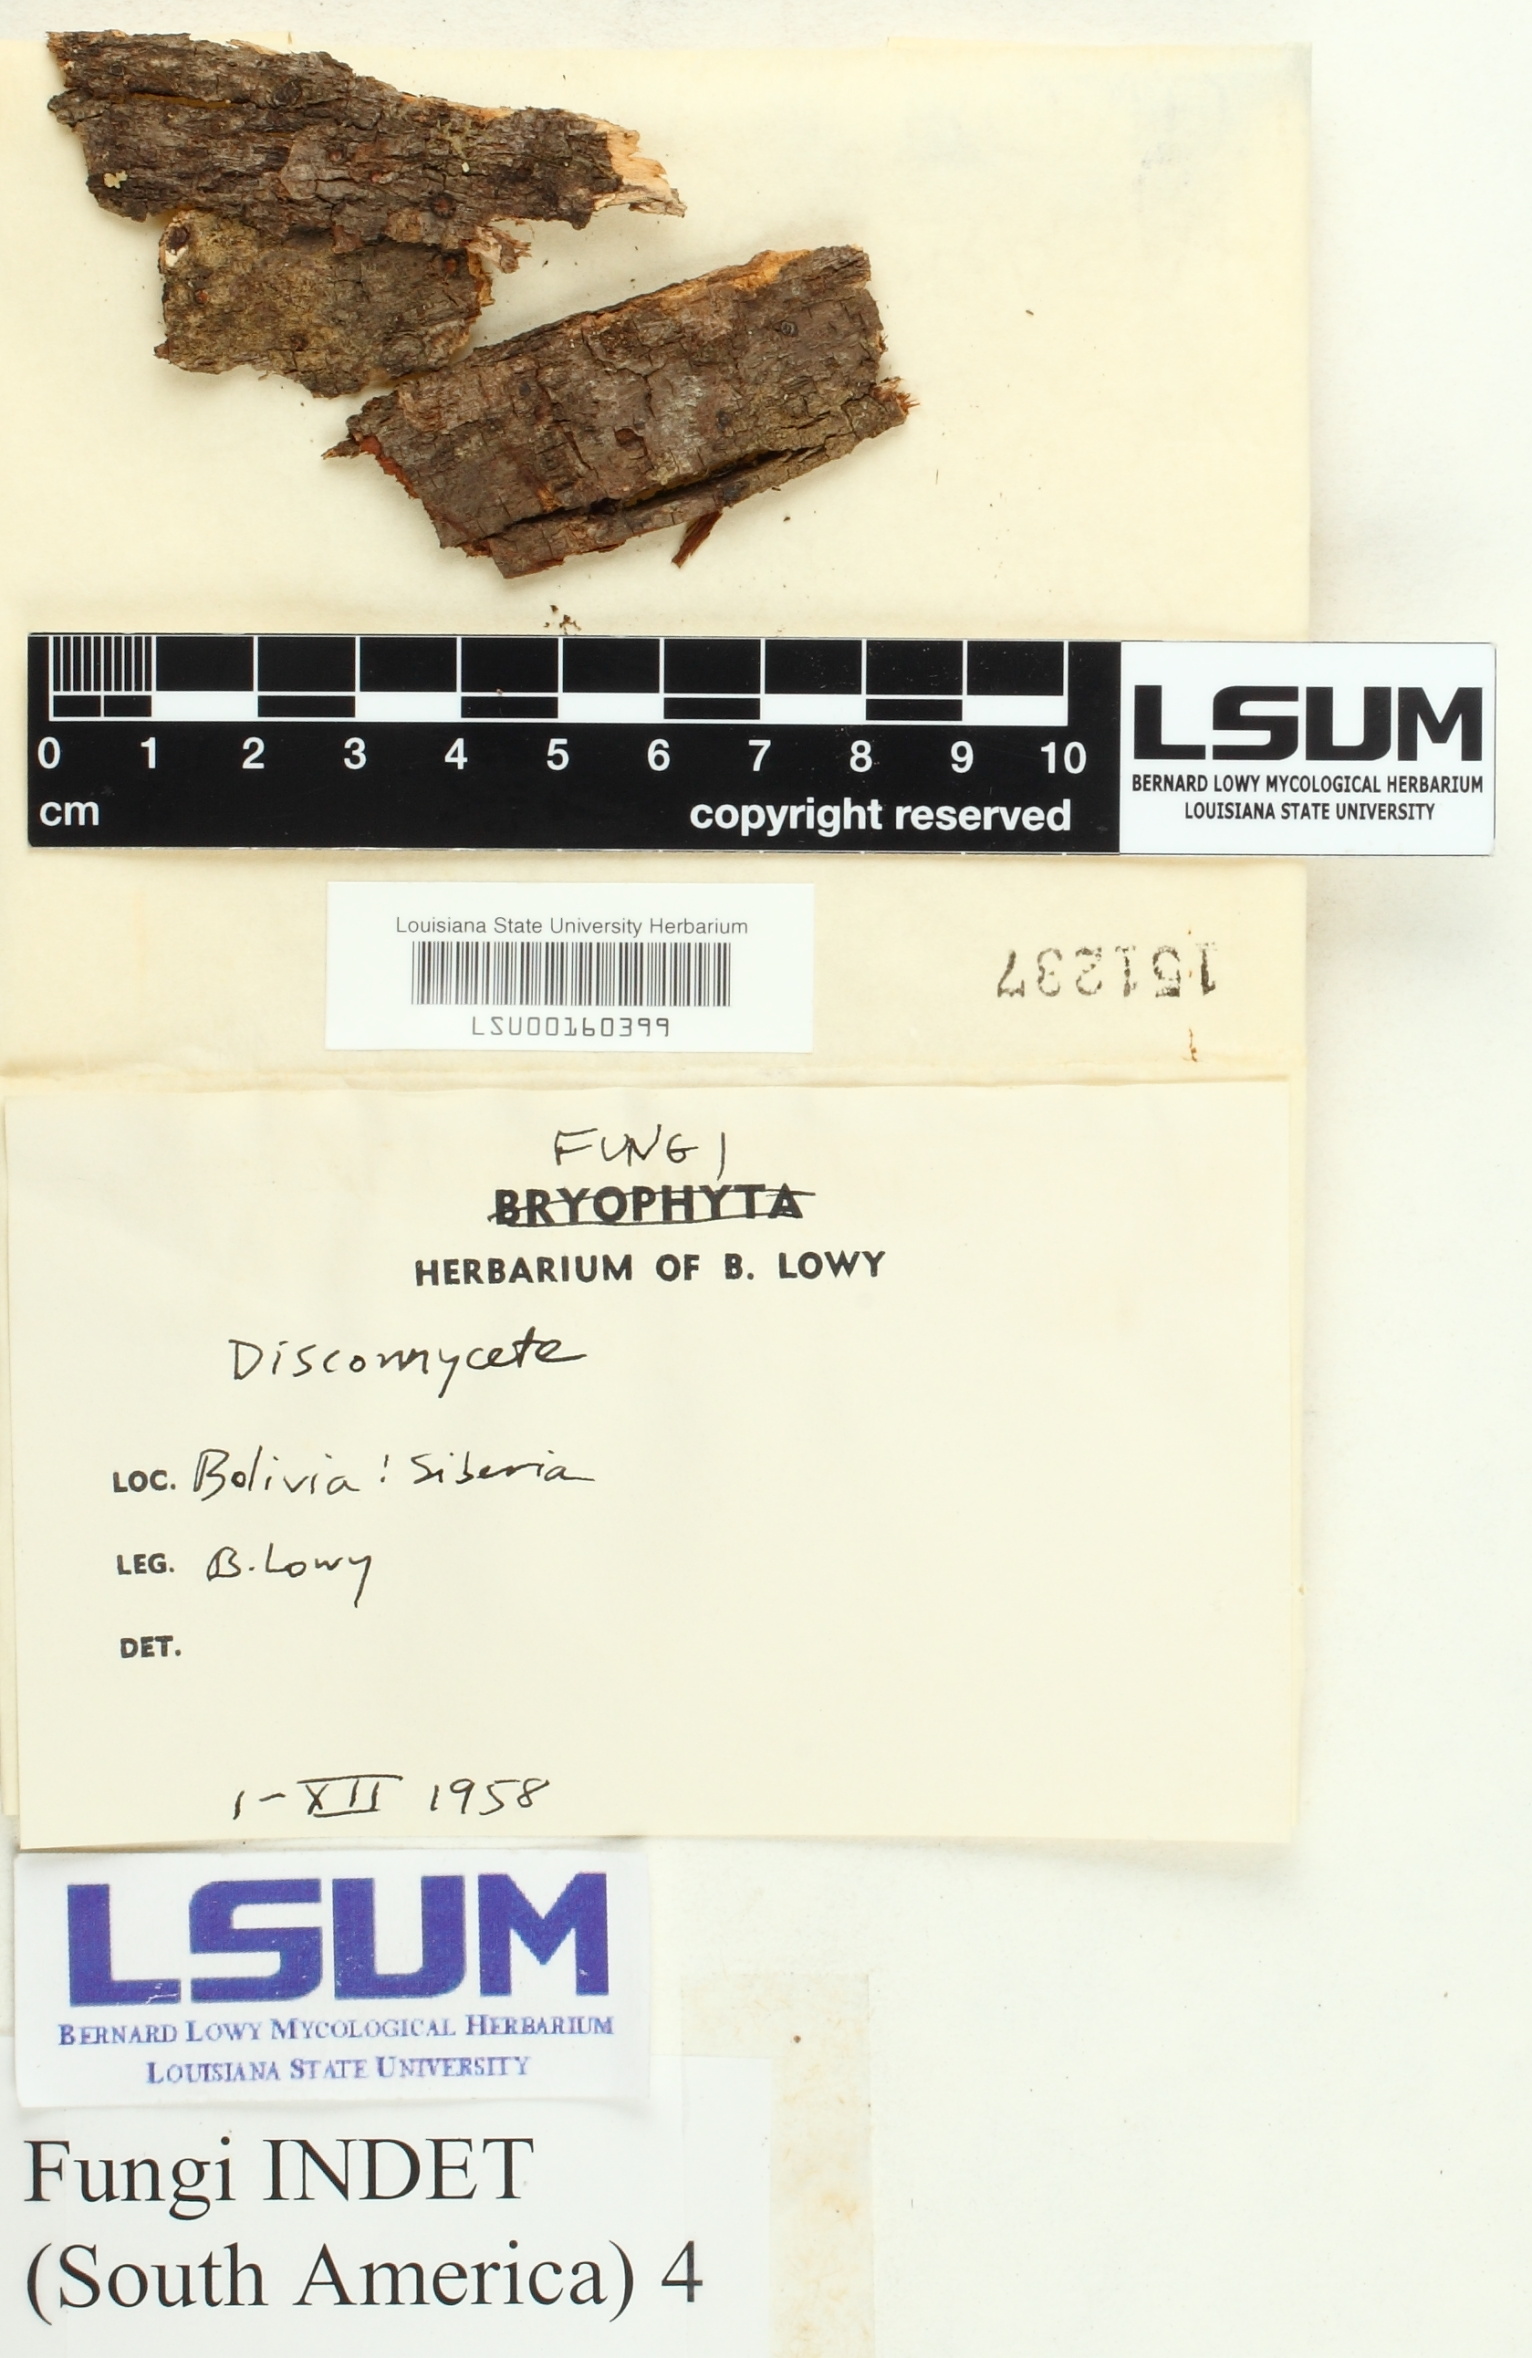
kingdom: Fungi
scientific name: Fungi
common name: Fungi
